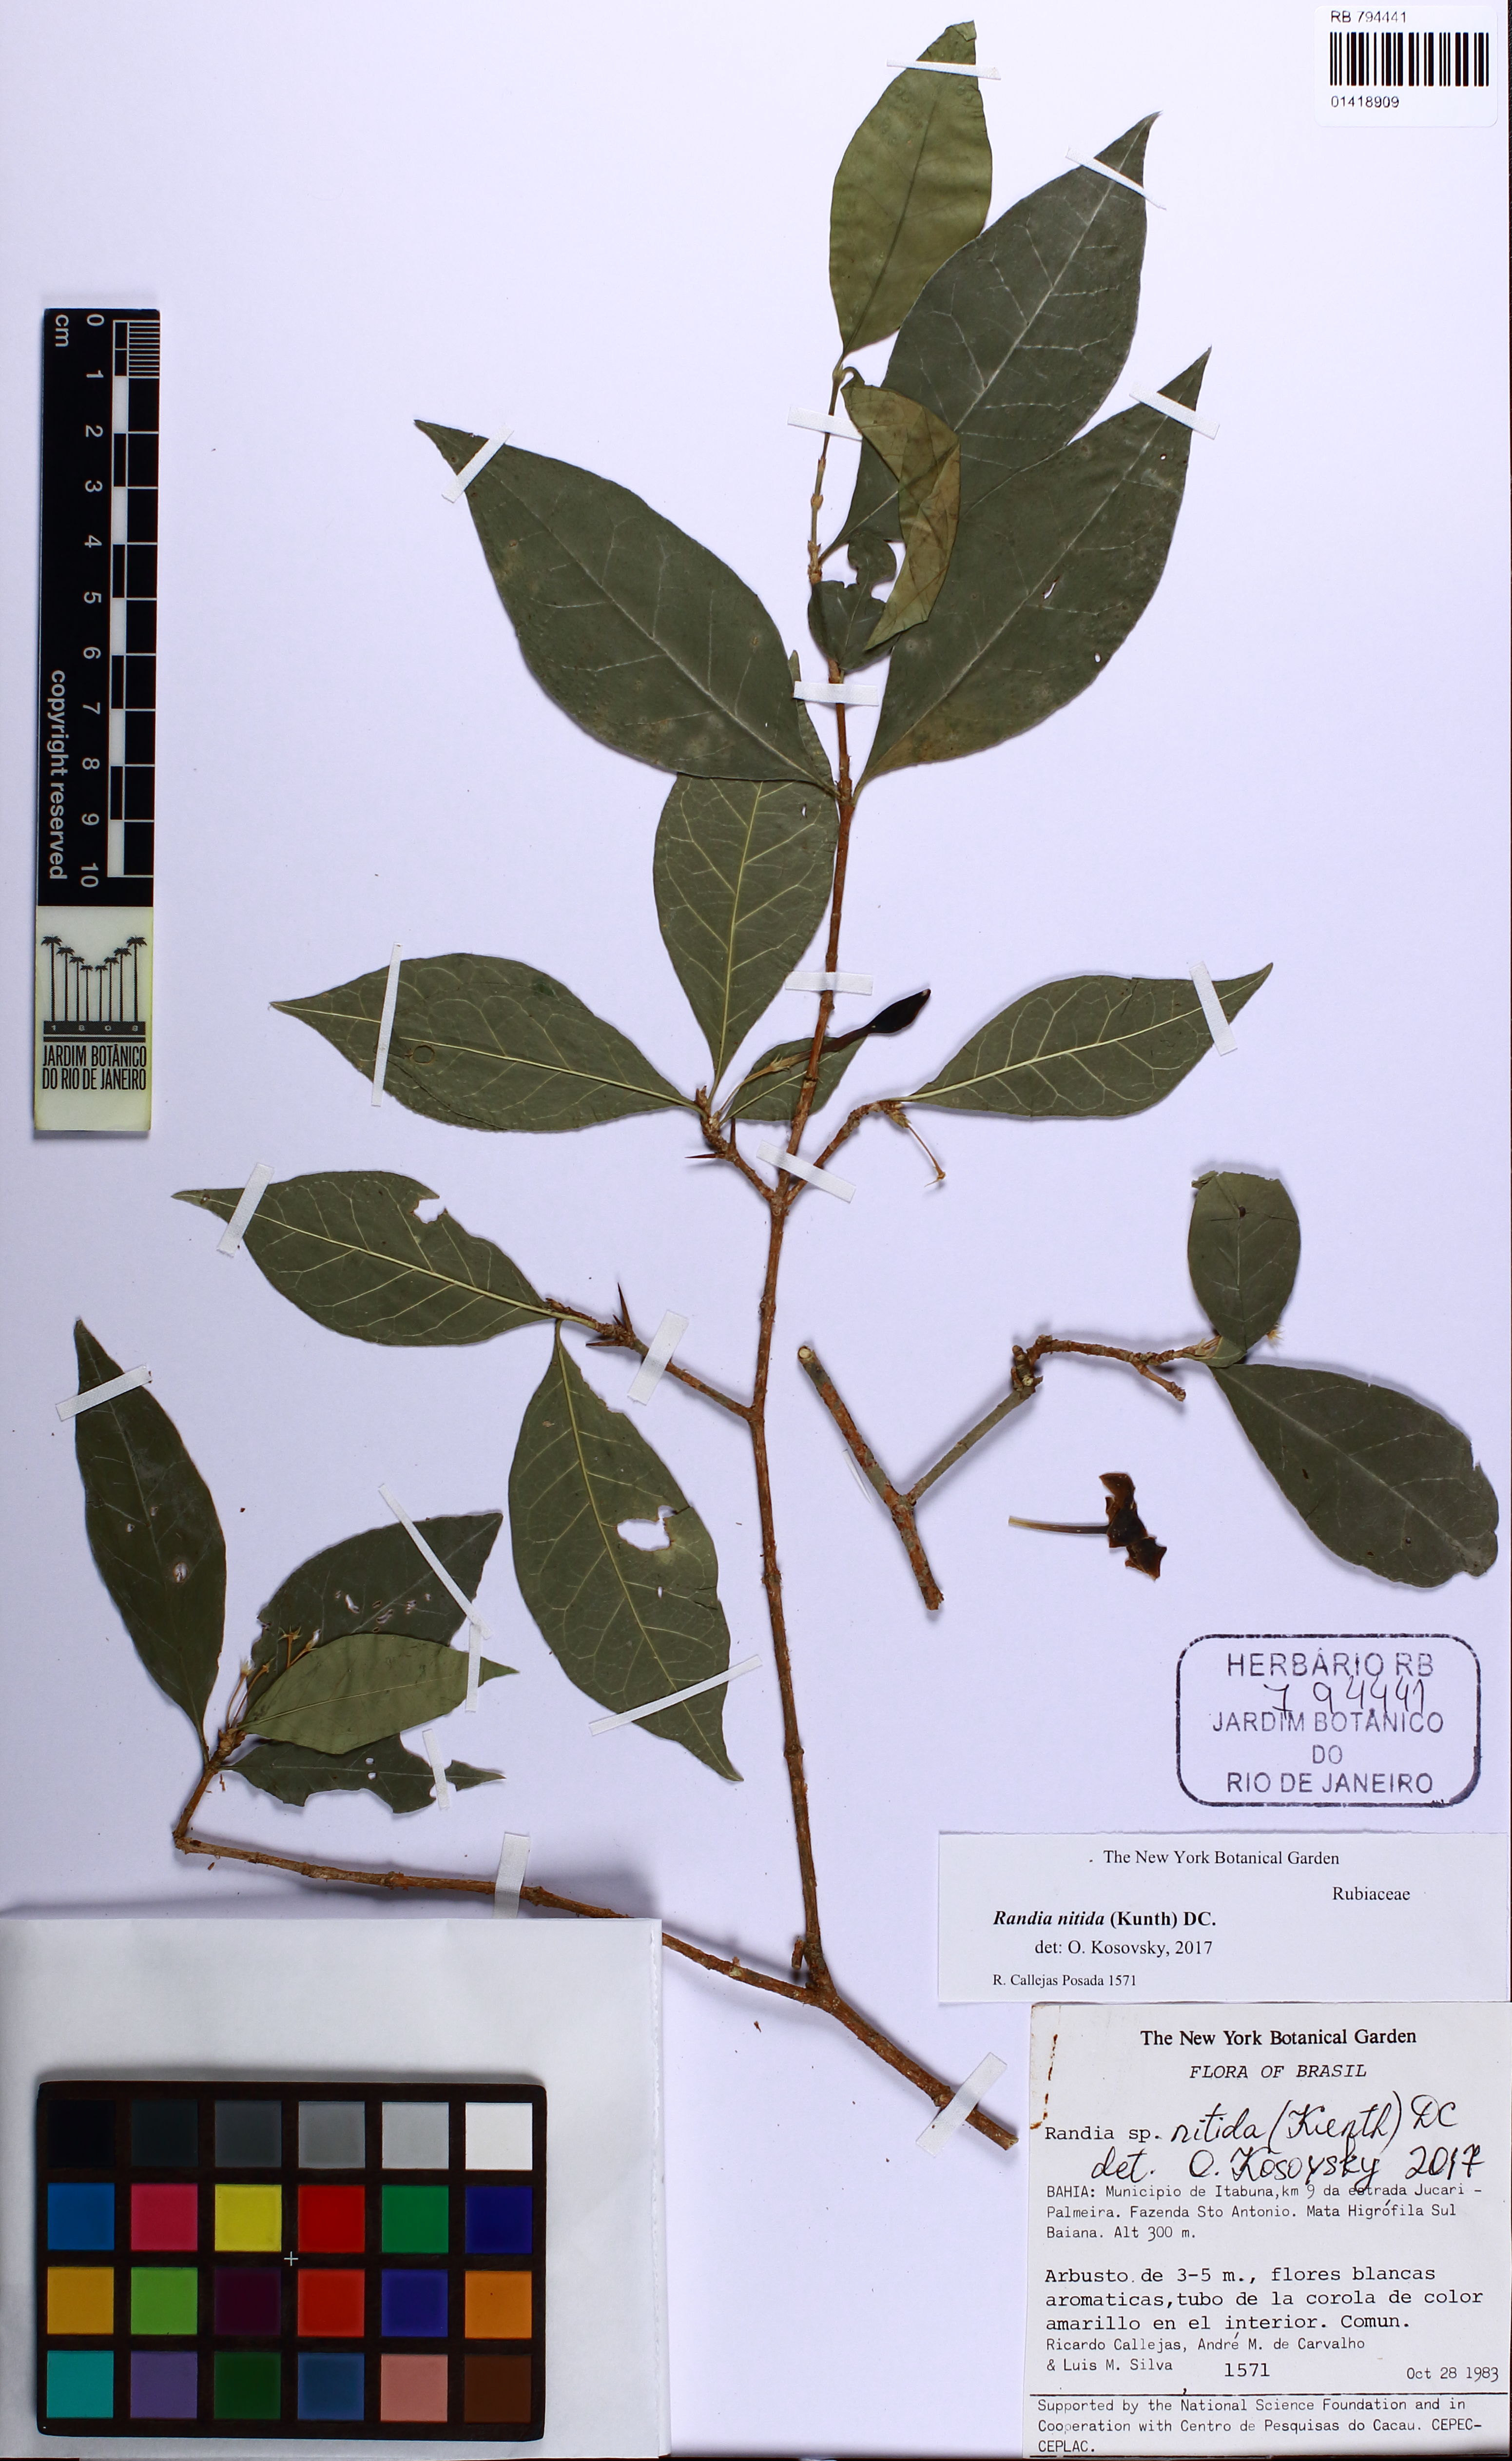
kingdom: Plantae
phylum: Tracheophyta
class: Magnoliopsida
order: Gentianales
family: Rubiaceae
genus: Randia
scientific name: Randia nitida
